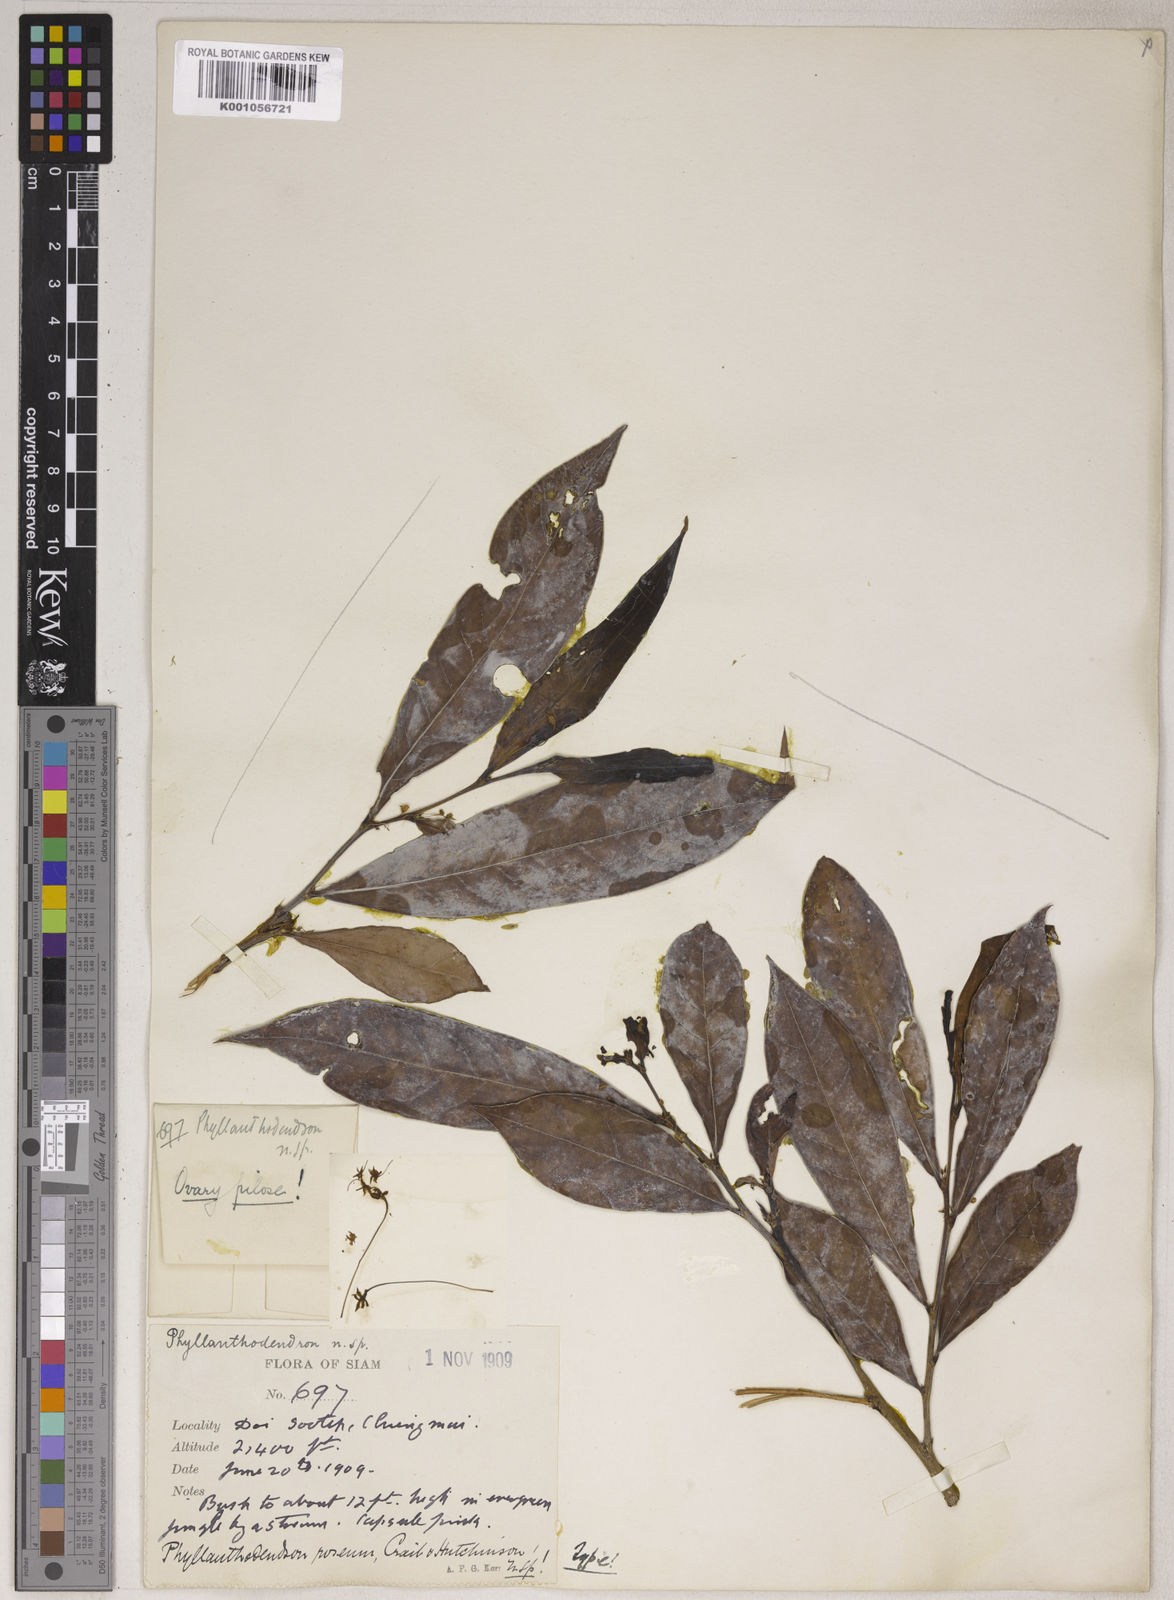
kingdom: Plantae
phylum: Tracheophyta
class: Magnoliopsida
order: Malpighiales
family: Phyllanthaceae
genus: Phyllanthus
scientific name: Phyllanthus roseus
